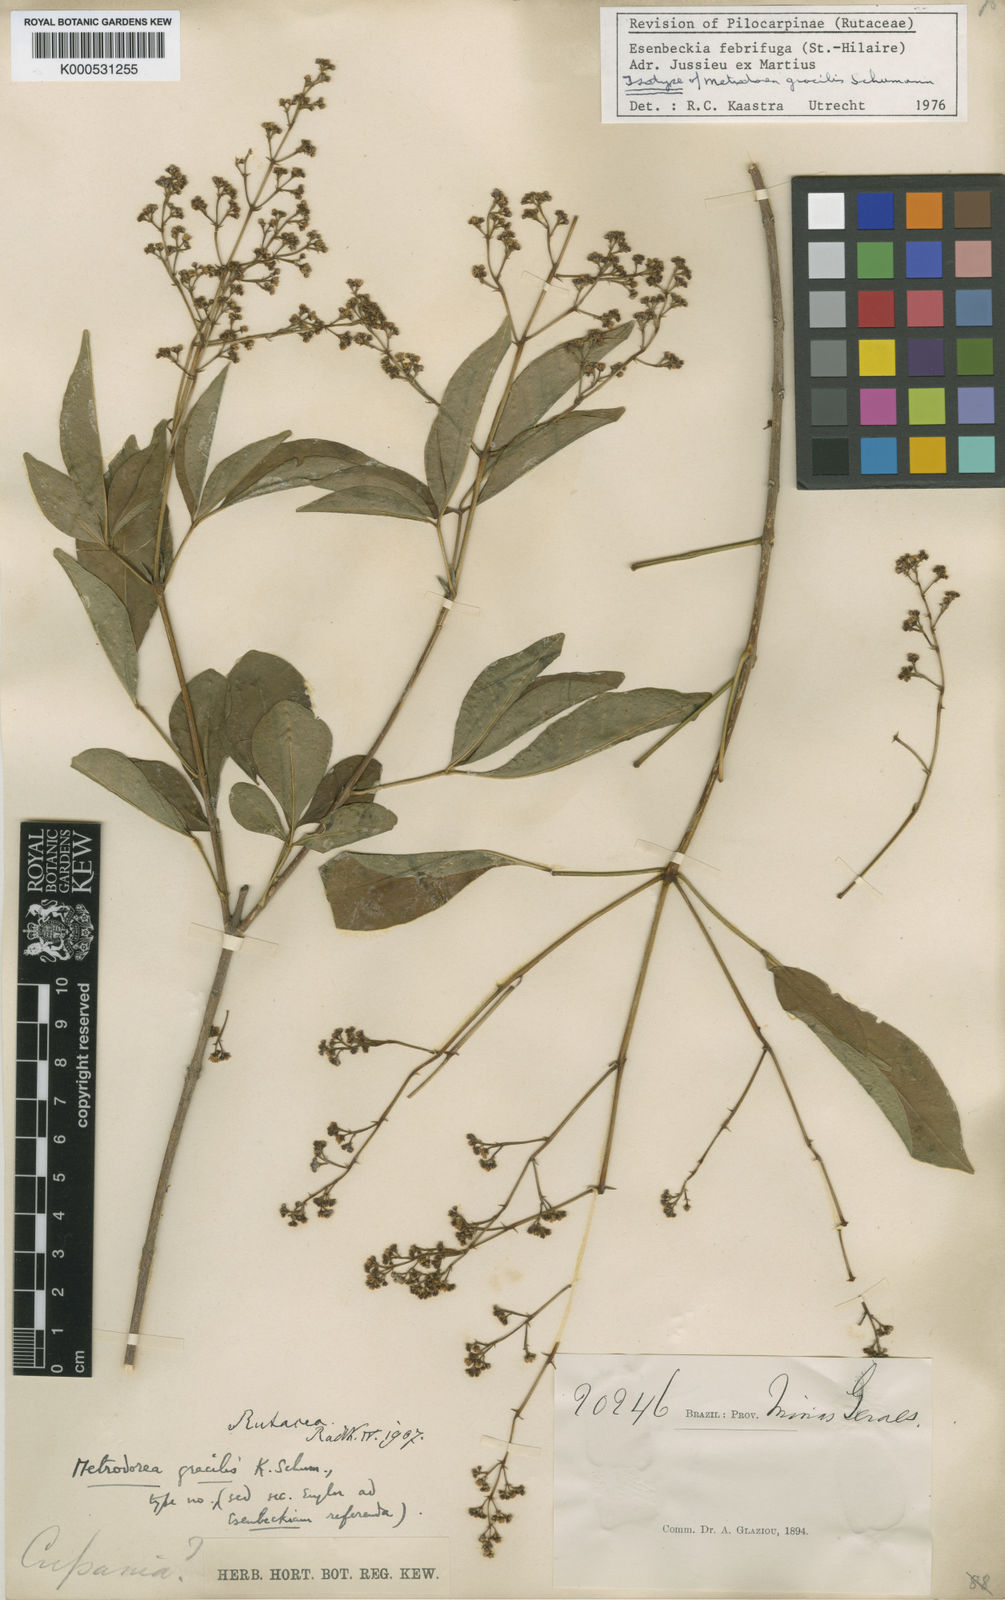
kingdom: Plantae
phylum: Tracheophyta
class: Magnoliopsida
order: Sapindales
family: Rutaceae
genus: Esenbeckia
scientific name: Esenbeckia febrifuga
